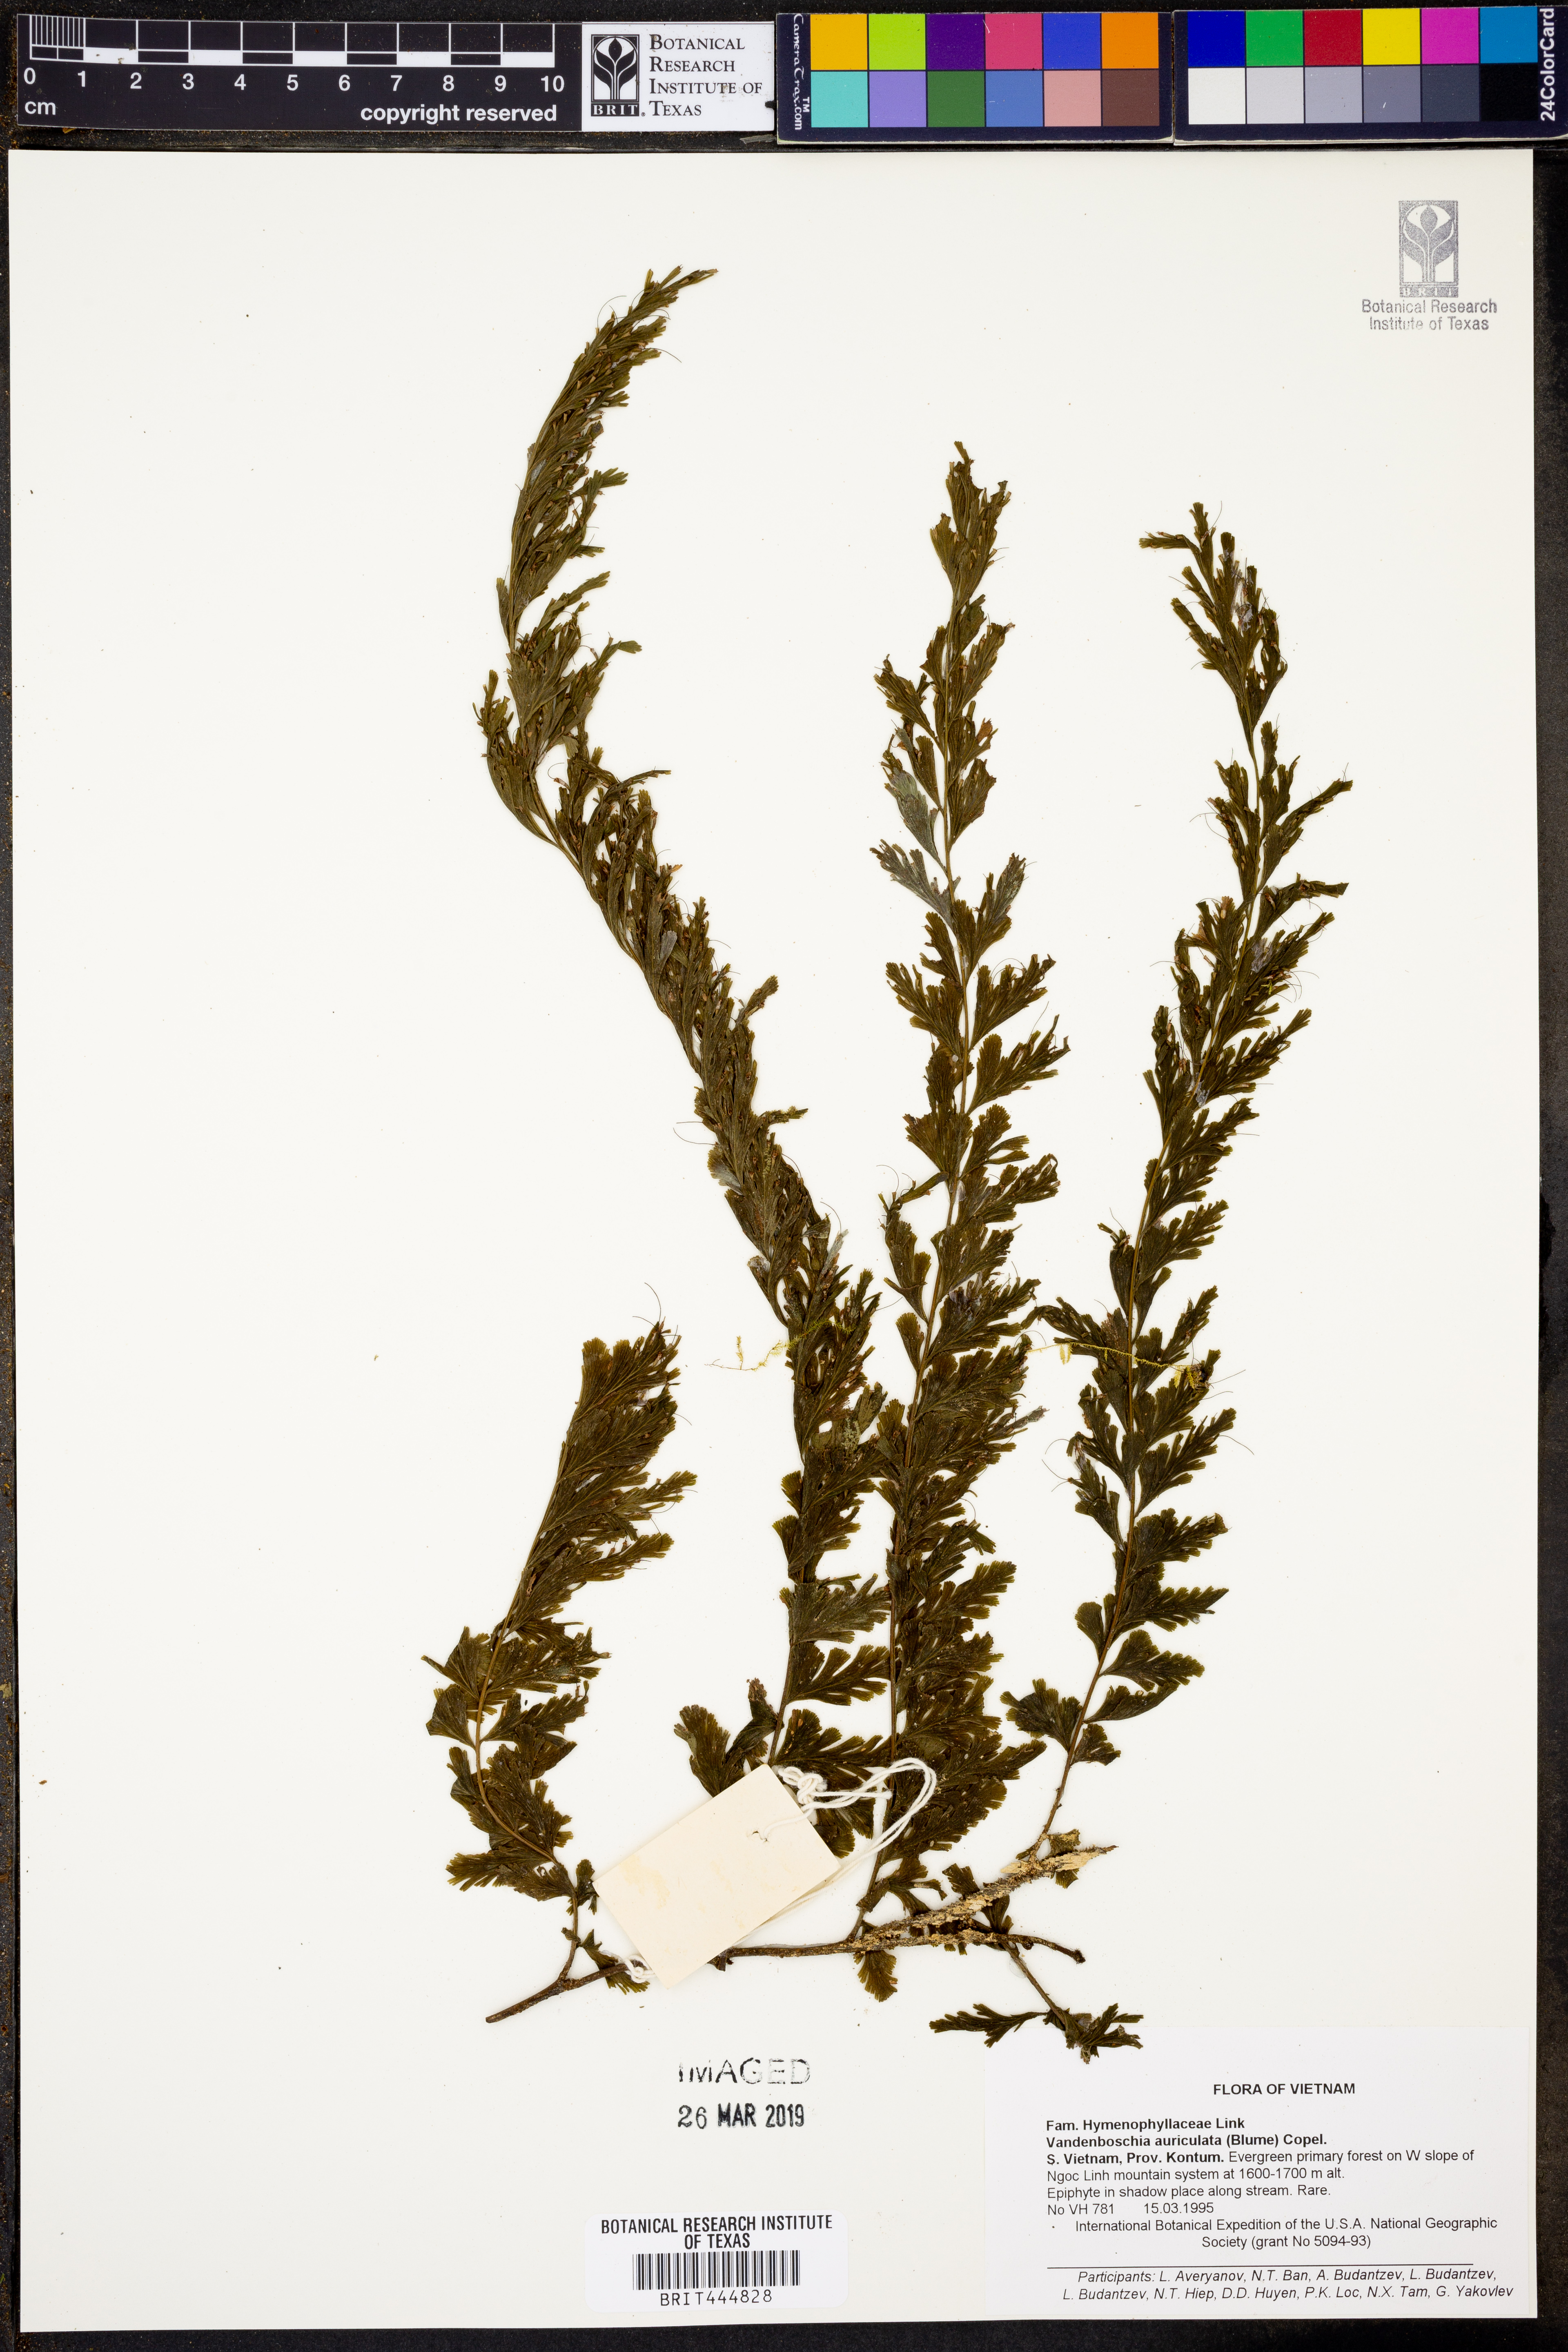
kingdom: Plantae
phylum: Tracheophyta
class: Polypodiopsida
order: Hymenophyllales
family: Hymenophyllaceae
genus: Vandenboschia
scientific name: Vandenboschia auriculata
